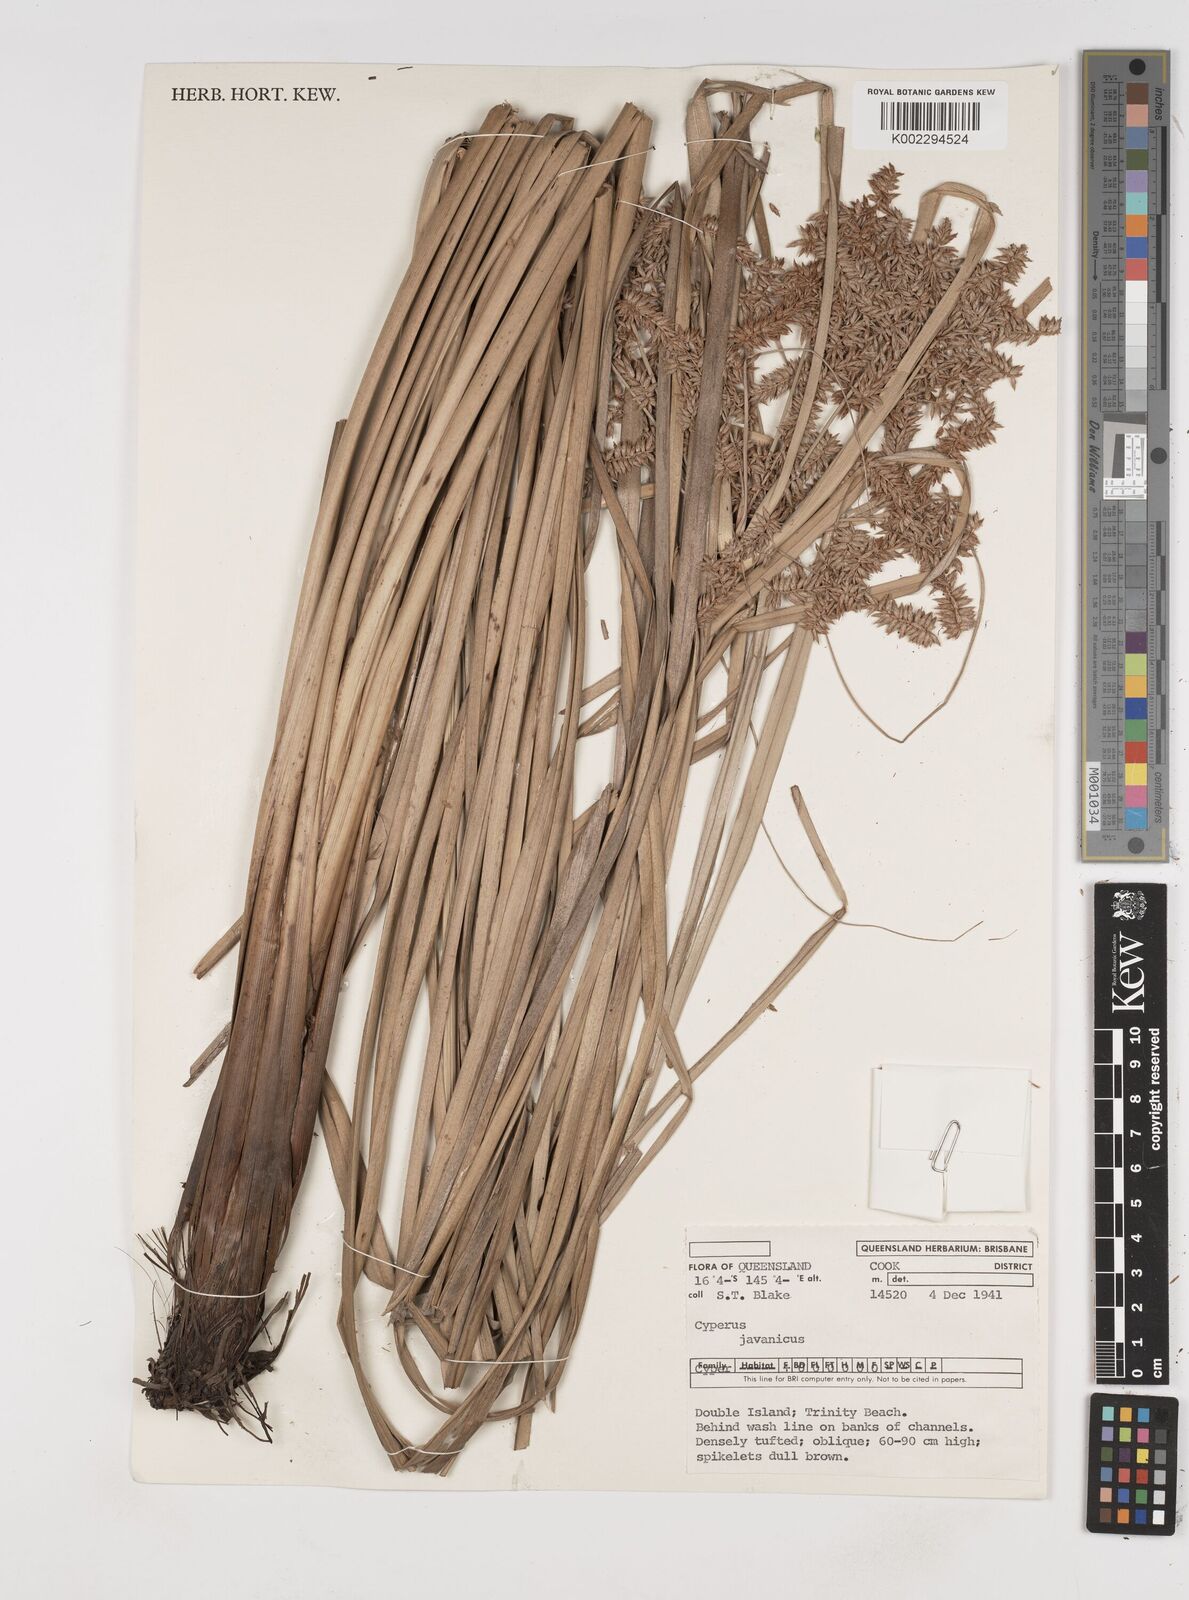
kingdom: Plantae
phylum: Tracheophyta
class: Liliopsida
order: Poales
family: Cyperaceae
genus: Cyperus
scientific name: Cyperus javanicus
